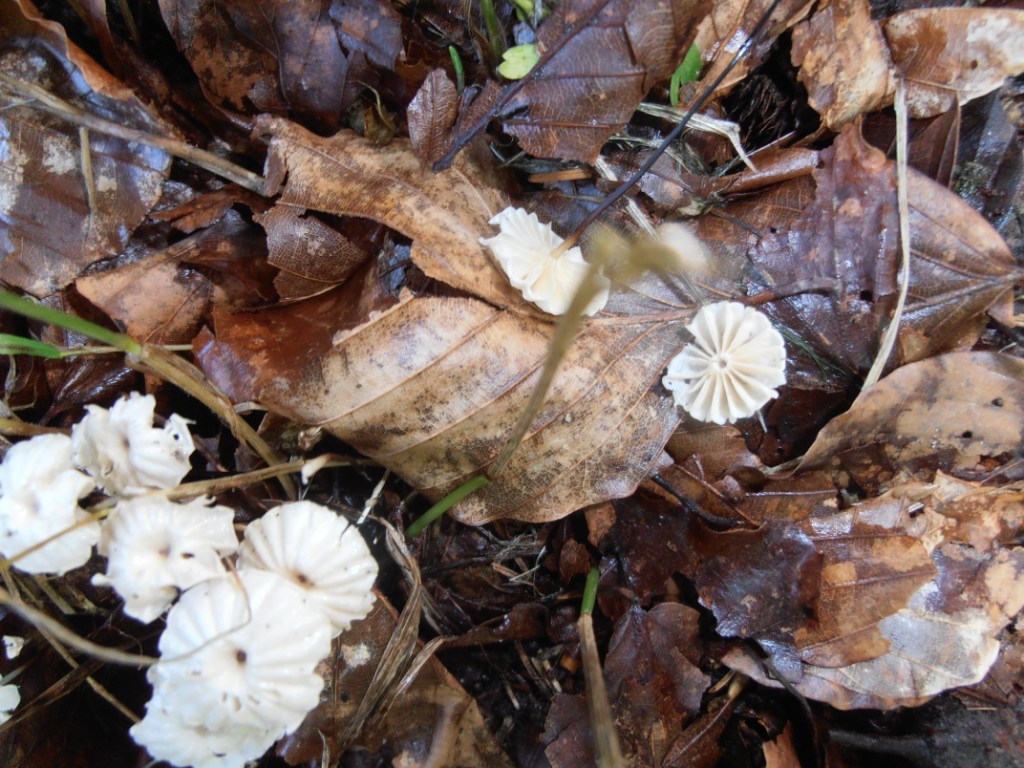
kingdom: Fungi
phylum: Basidiomycota
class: Agaricomycetes
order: Agaricales
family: Marasmiaceae
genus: Marasmius
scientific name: Marasmius rotula
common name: hjul-bruskhat
